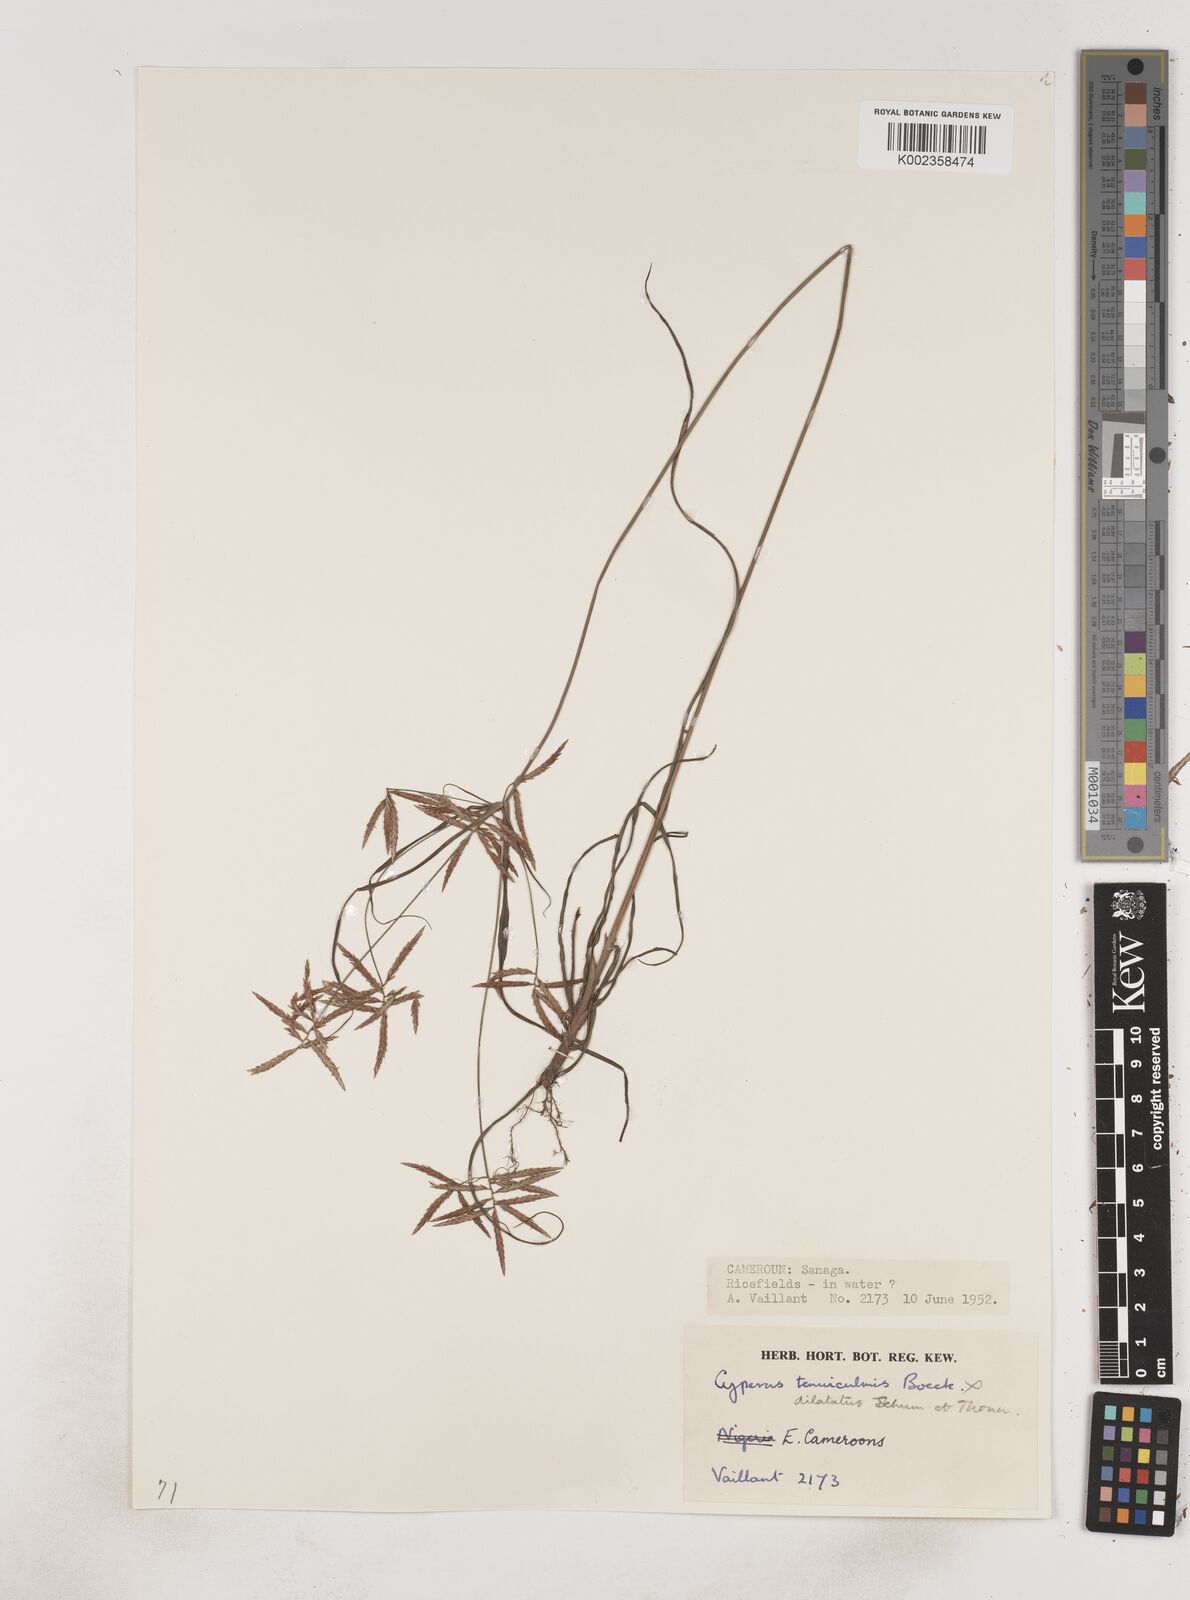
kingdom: Plantae
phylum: Tracheophyta
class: Liliopsida
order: Poales
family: Cyperaceae
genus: Cyperus
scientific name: Cyperus dilatatus
